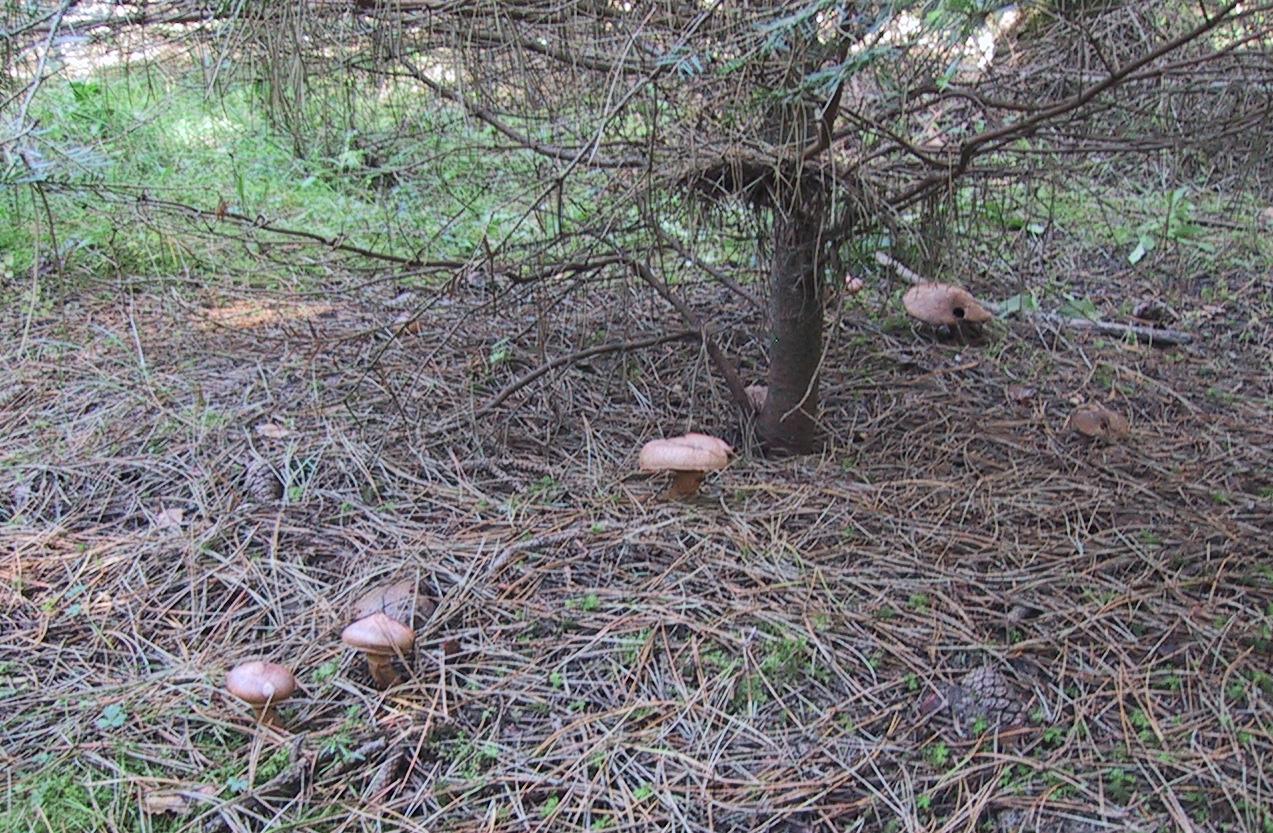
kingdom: Fungi
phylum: Basidiomycota
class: Agaricomycetes
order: Boletales
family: Gomphidiaceae
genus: Chroogomphus
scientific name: Chroogomphus rutilus
